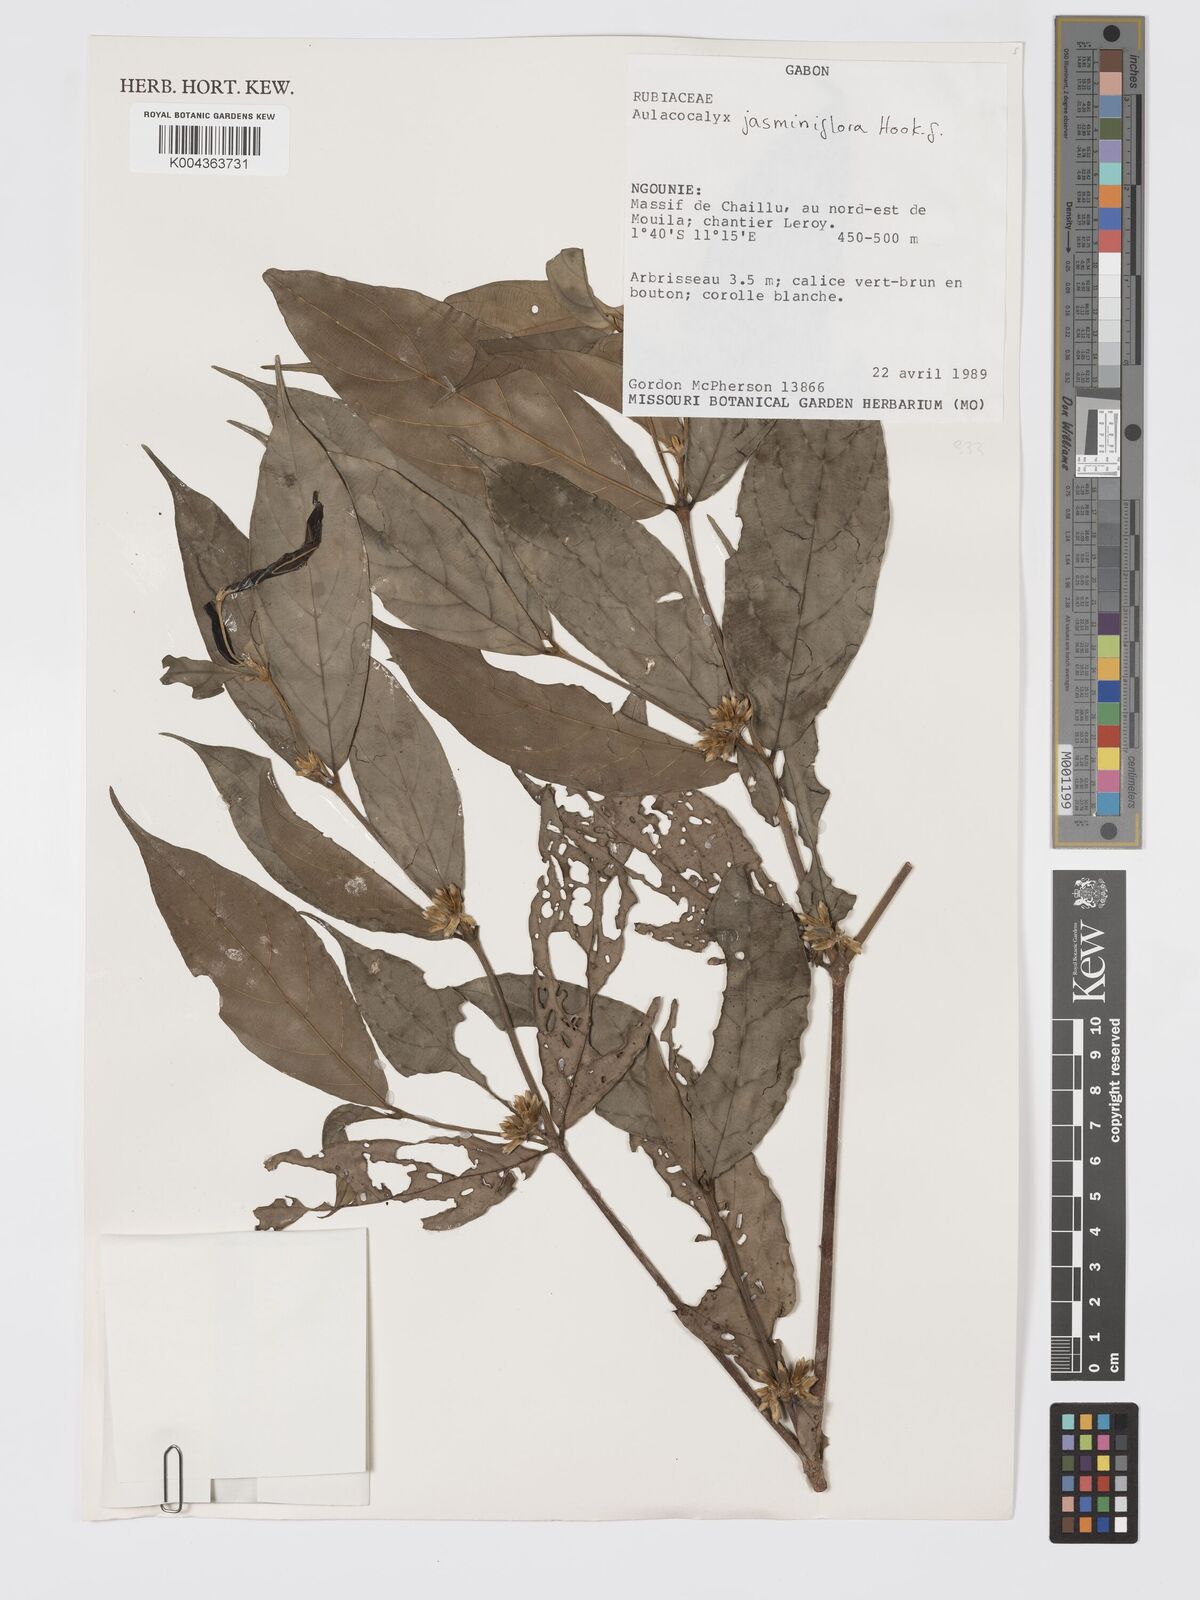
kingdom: Plantae
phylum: Tracheophyta
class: Magnoliopsida
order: Gentianales
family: Rubiaceae
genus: Aulacocalyx
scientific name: Aulacocalyx jasminiflora
